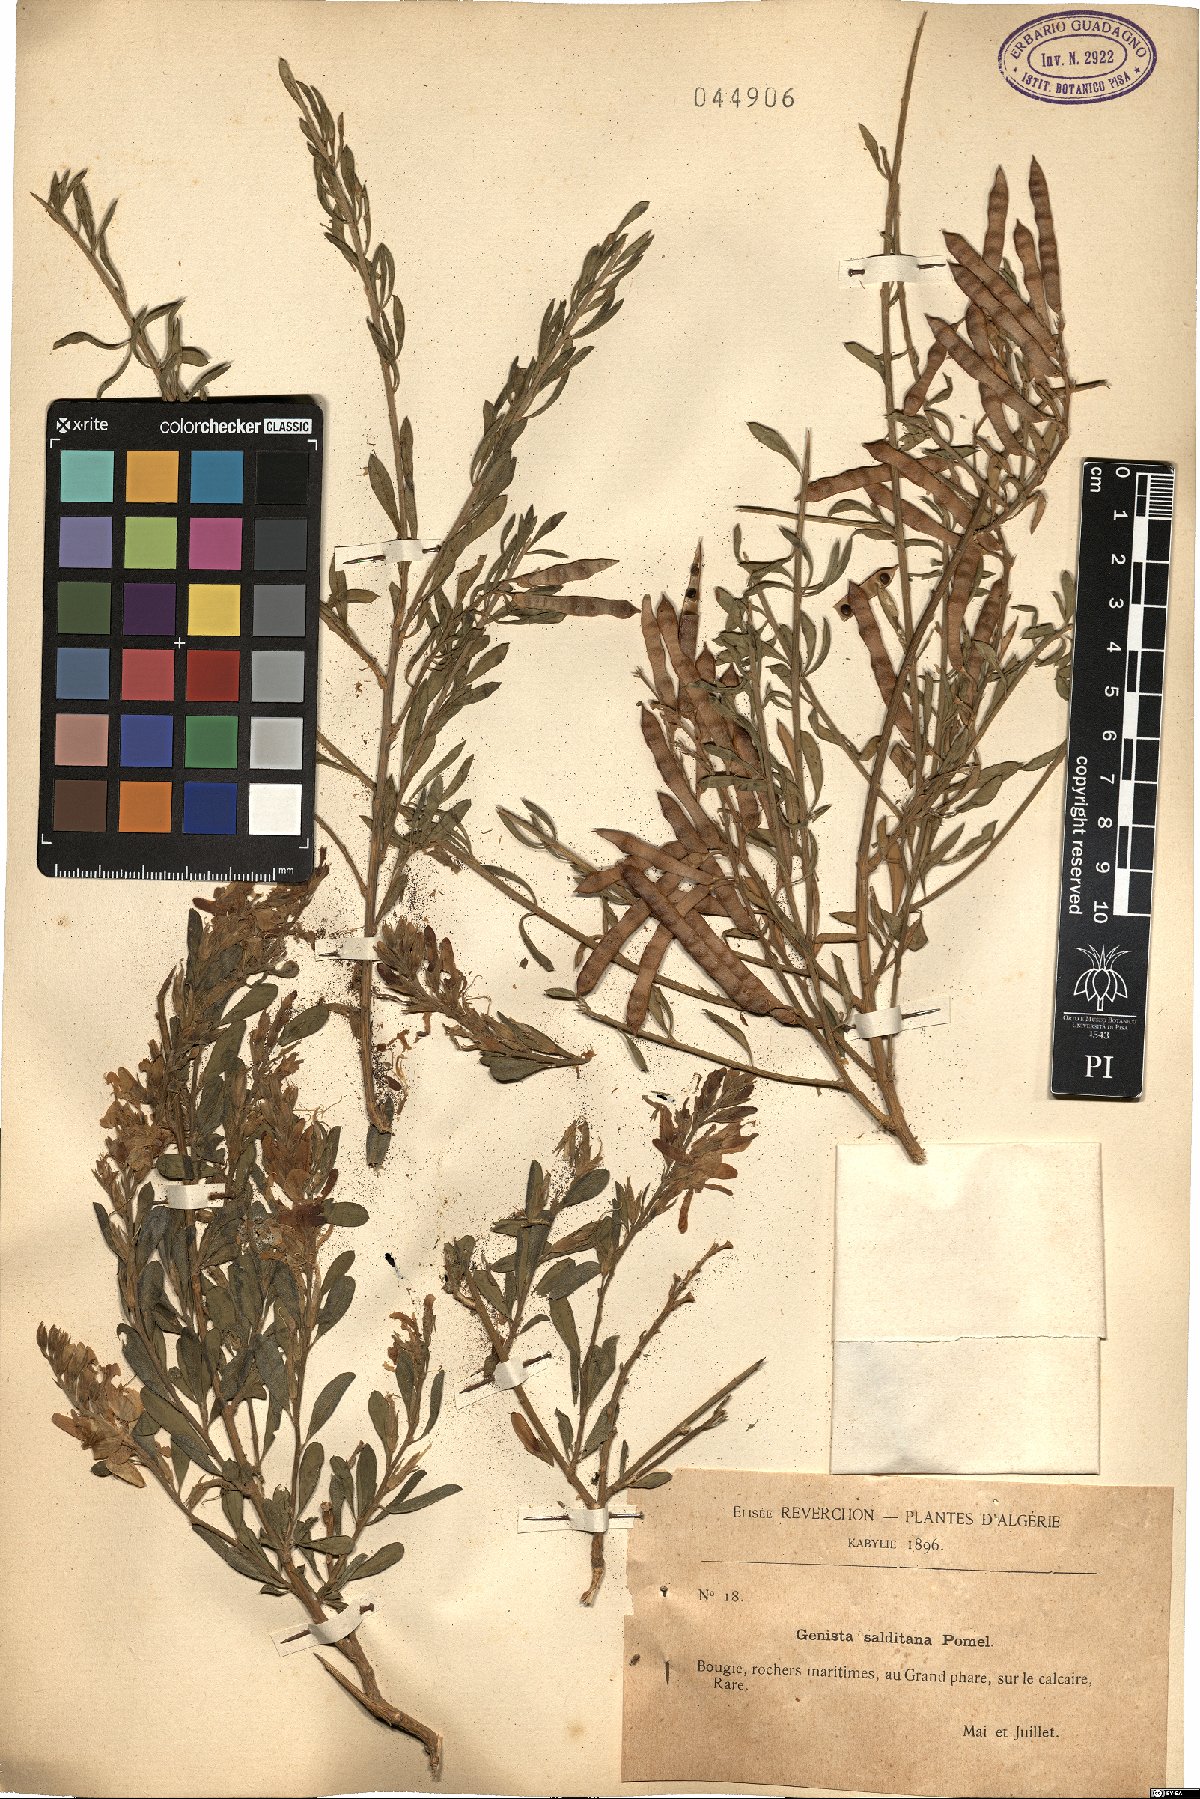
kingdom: Plantae
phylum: Tracheophyta
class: Magnoliopsida
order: Fabales
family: Fabaceae
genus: Genista
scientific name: Genista ferox
